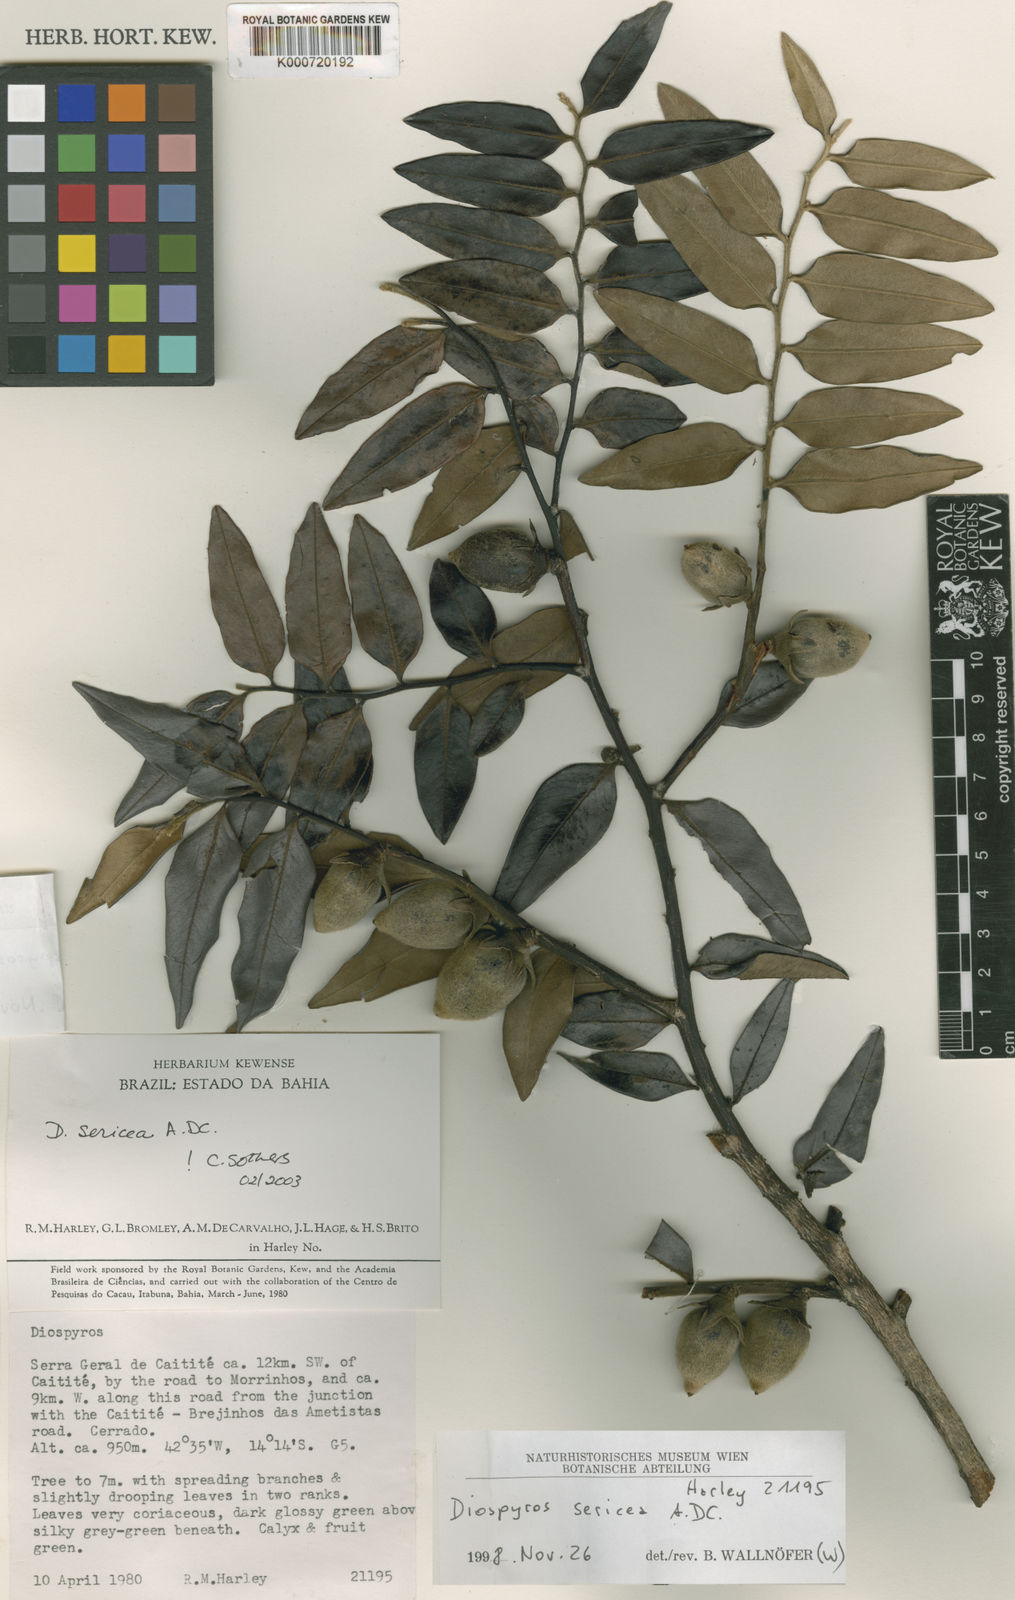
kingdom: Plantae
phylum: Tracheophyta
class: Magnoliopsida
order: Ericales
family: Ebenaceae
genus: Diospyros
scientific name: Diospyros sericea
